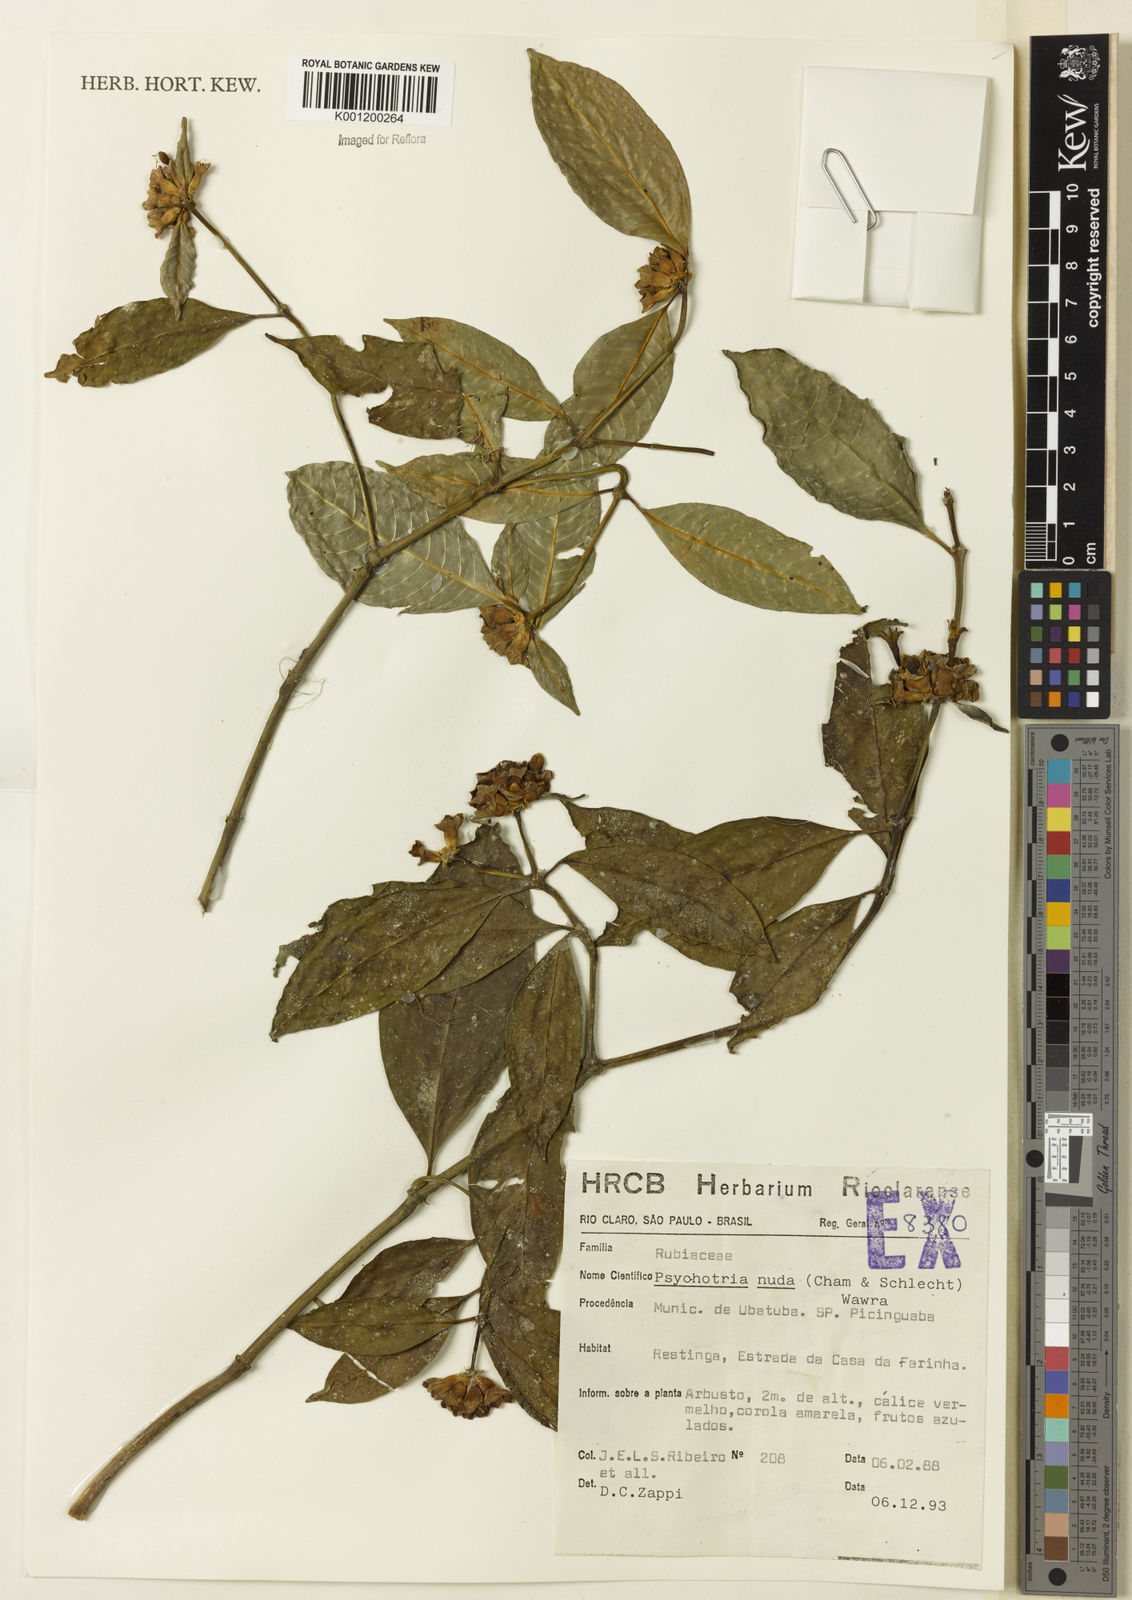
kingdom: Plantae
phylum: Tracheophyta
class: Magnoliopsida
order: Gentianales
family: Rubiaceae
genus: Psychotria
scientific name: Psychotria nuda
